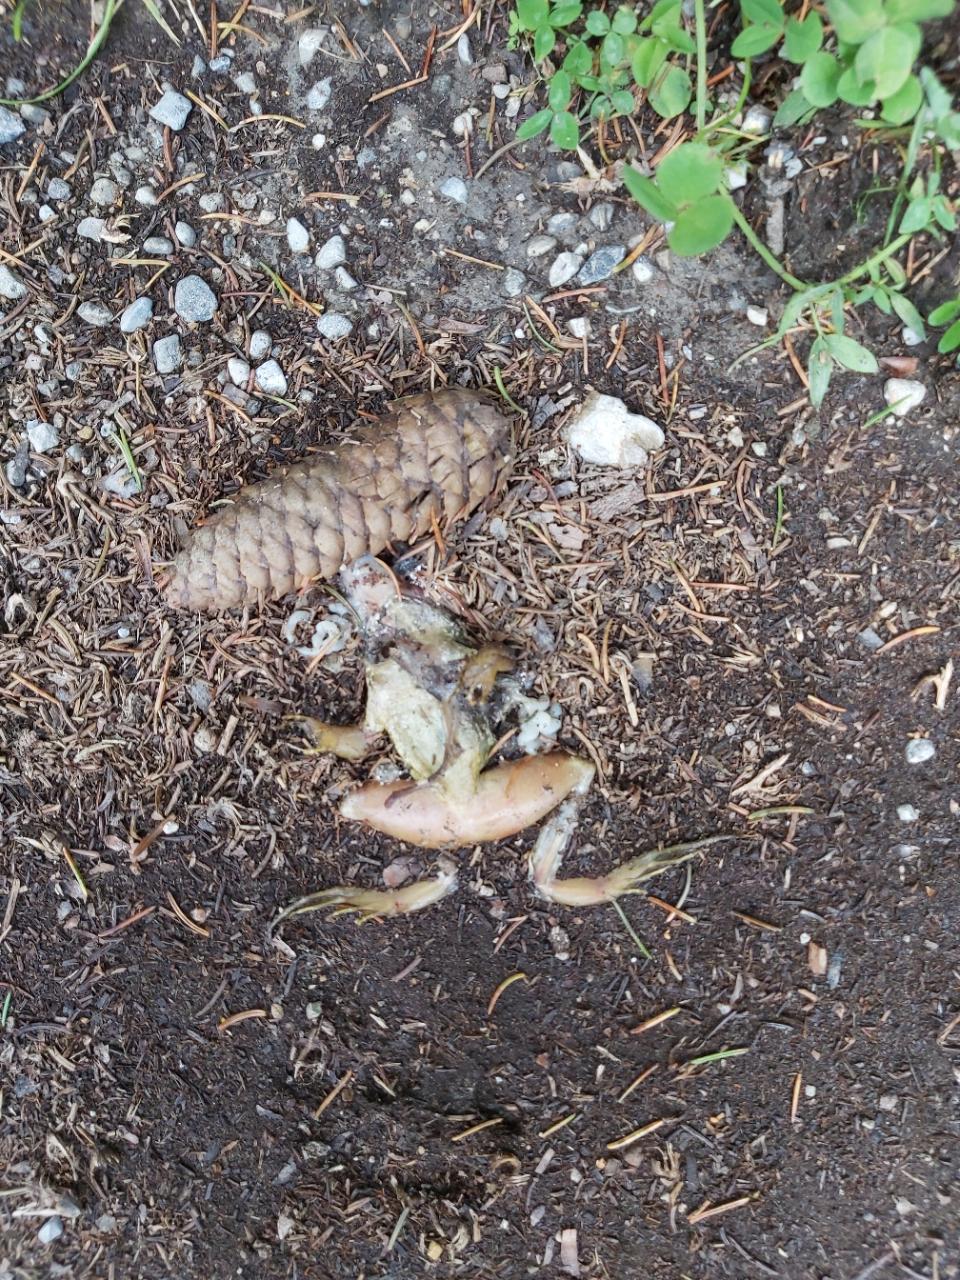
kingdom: Animalia
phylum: Chordata
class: Amphibia
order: Anura
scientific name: Anura
